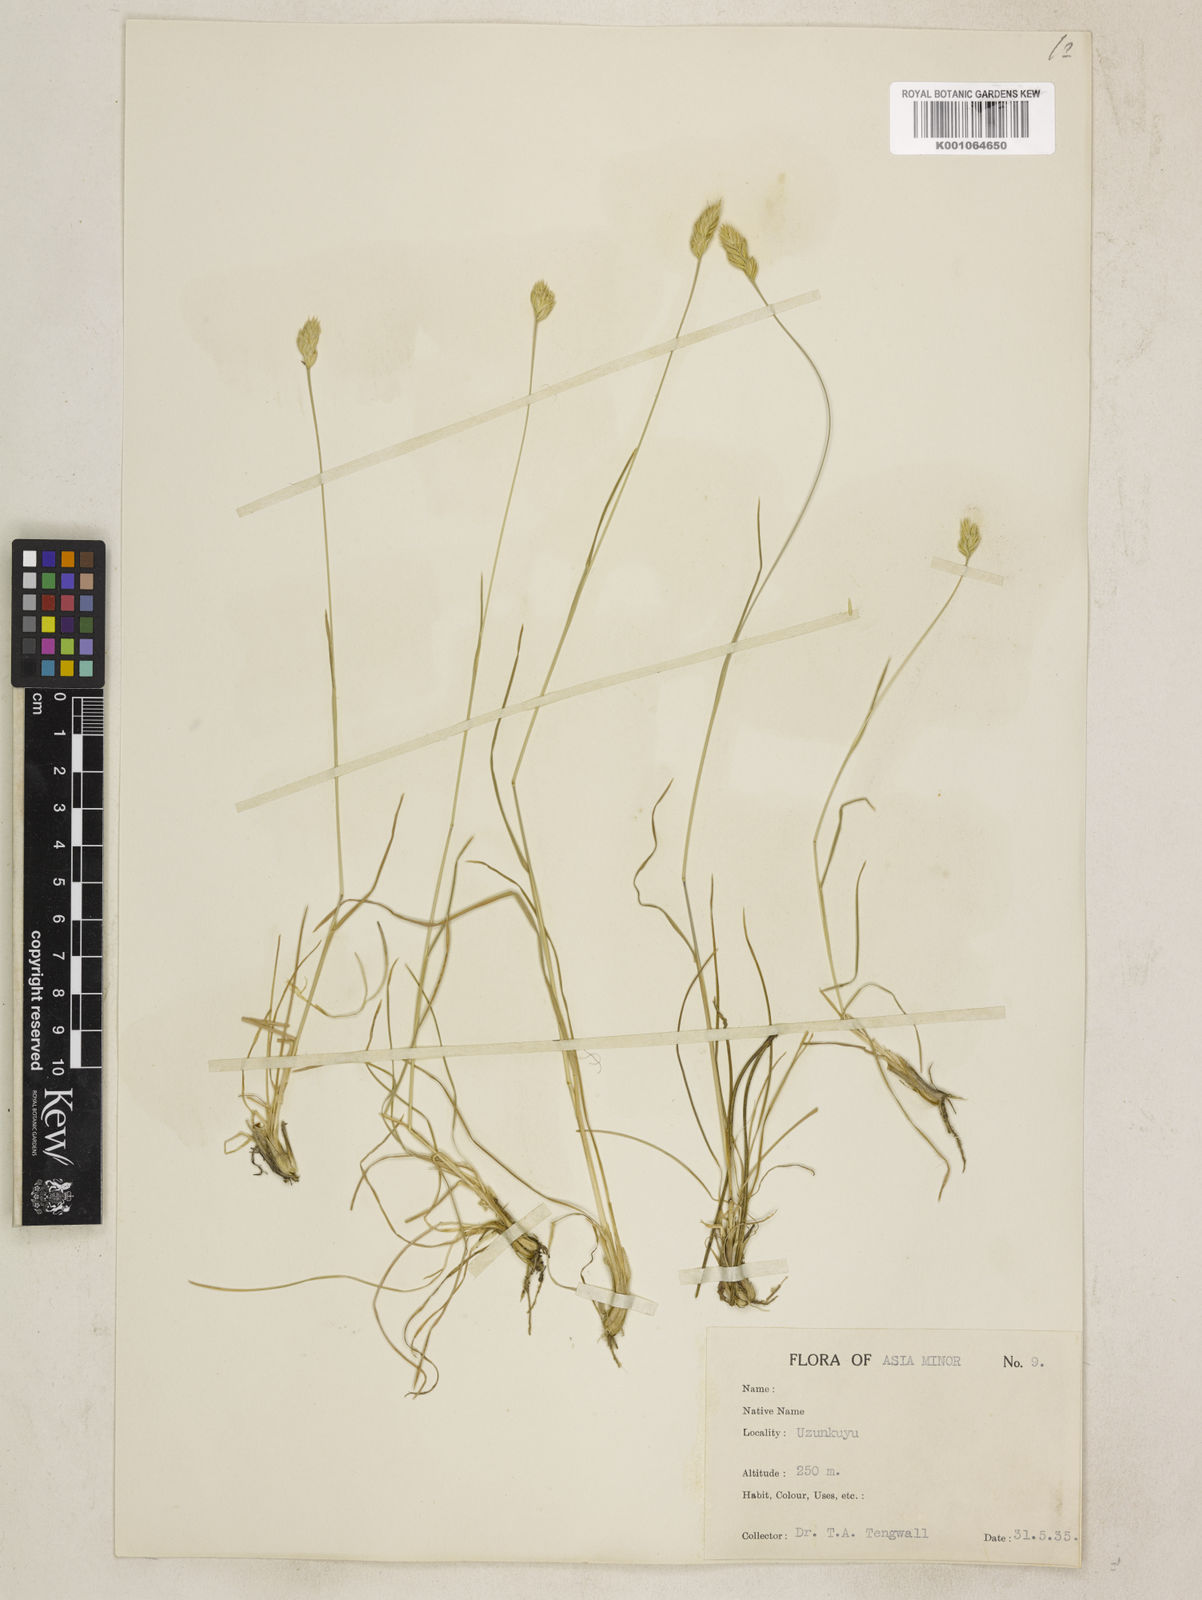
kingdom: Plantae
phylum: Tracheophyta
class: Liliopsida
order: Poales
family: Poaceae
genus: Dactylis
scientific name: Dactylis glomerata
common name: Orchardgrass
